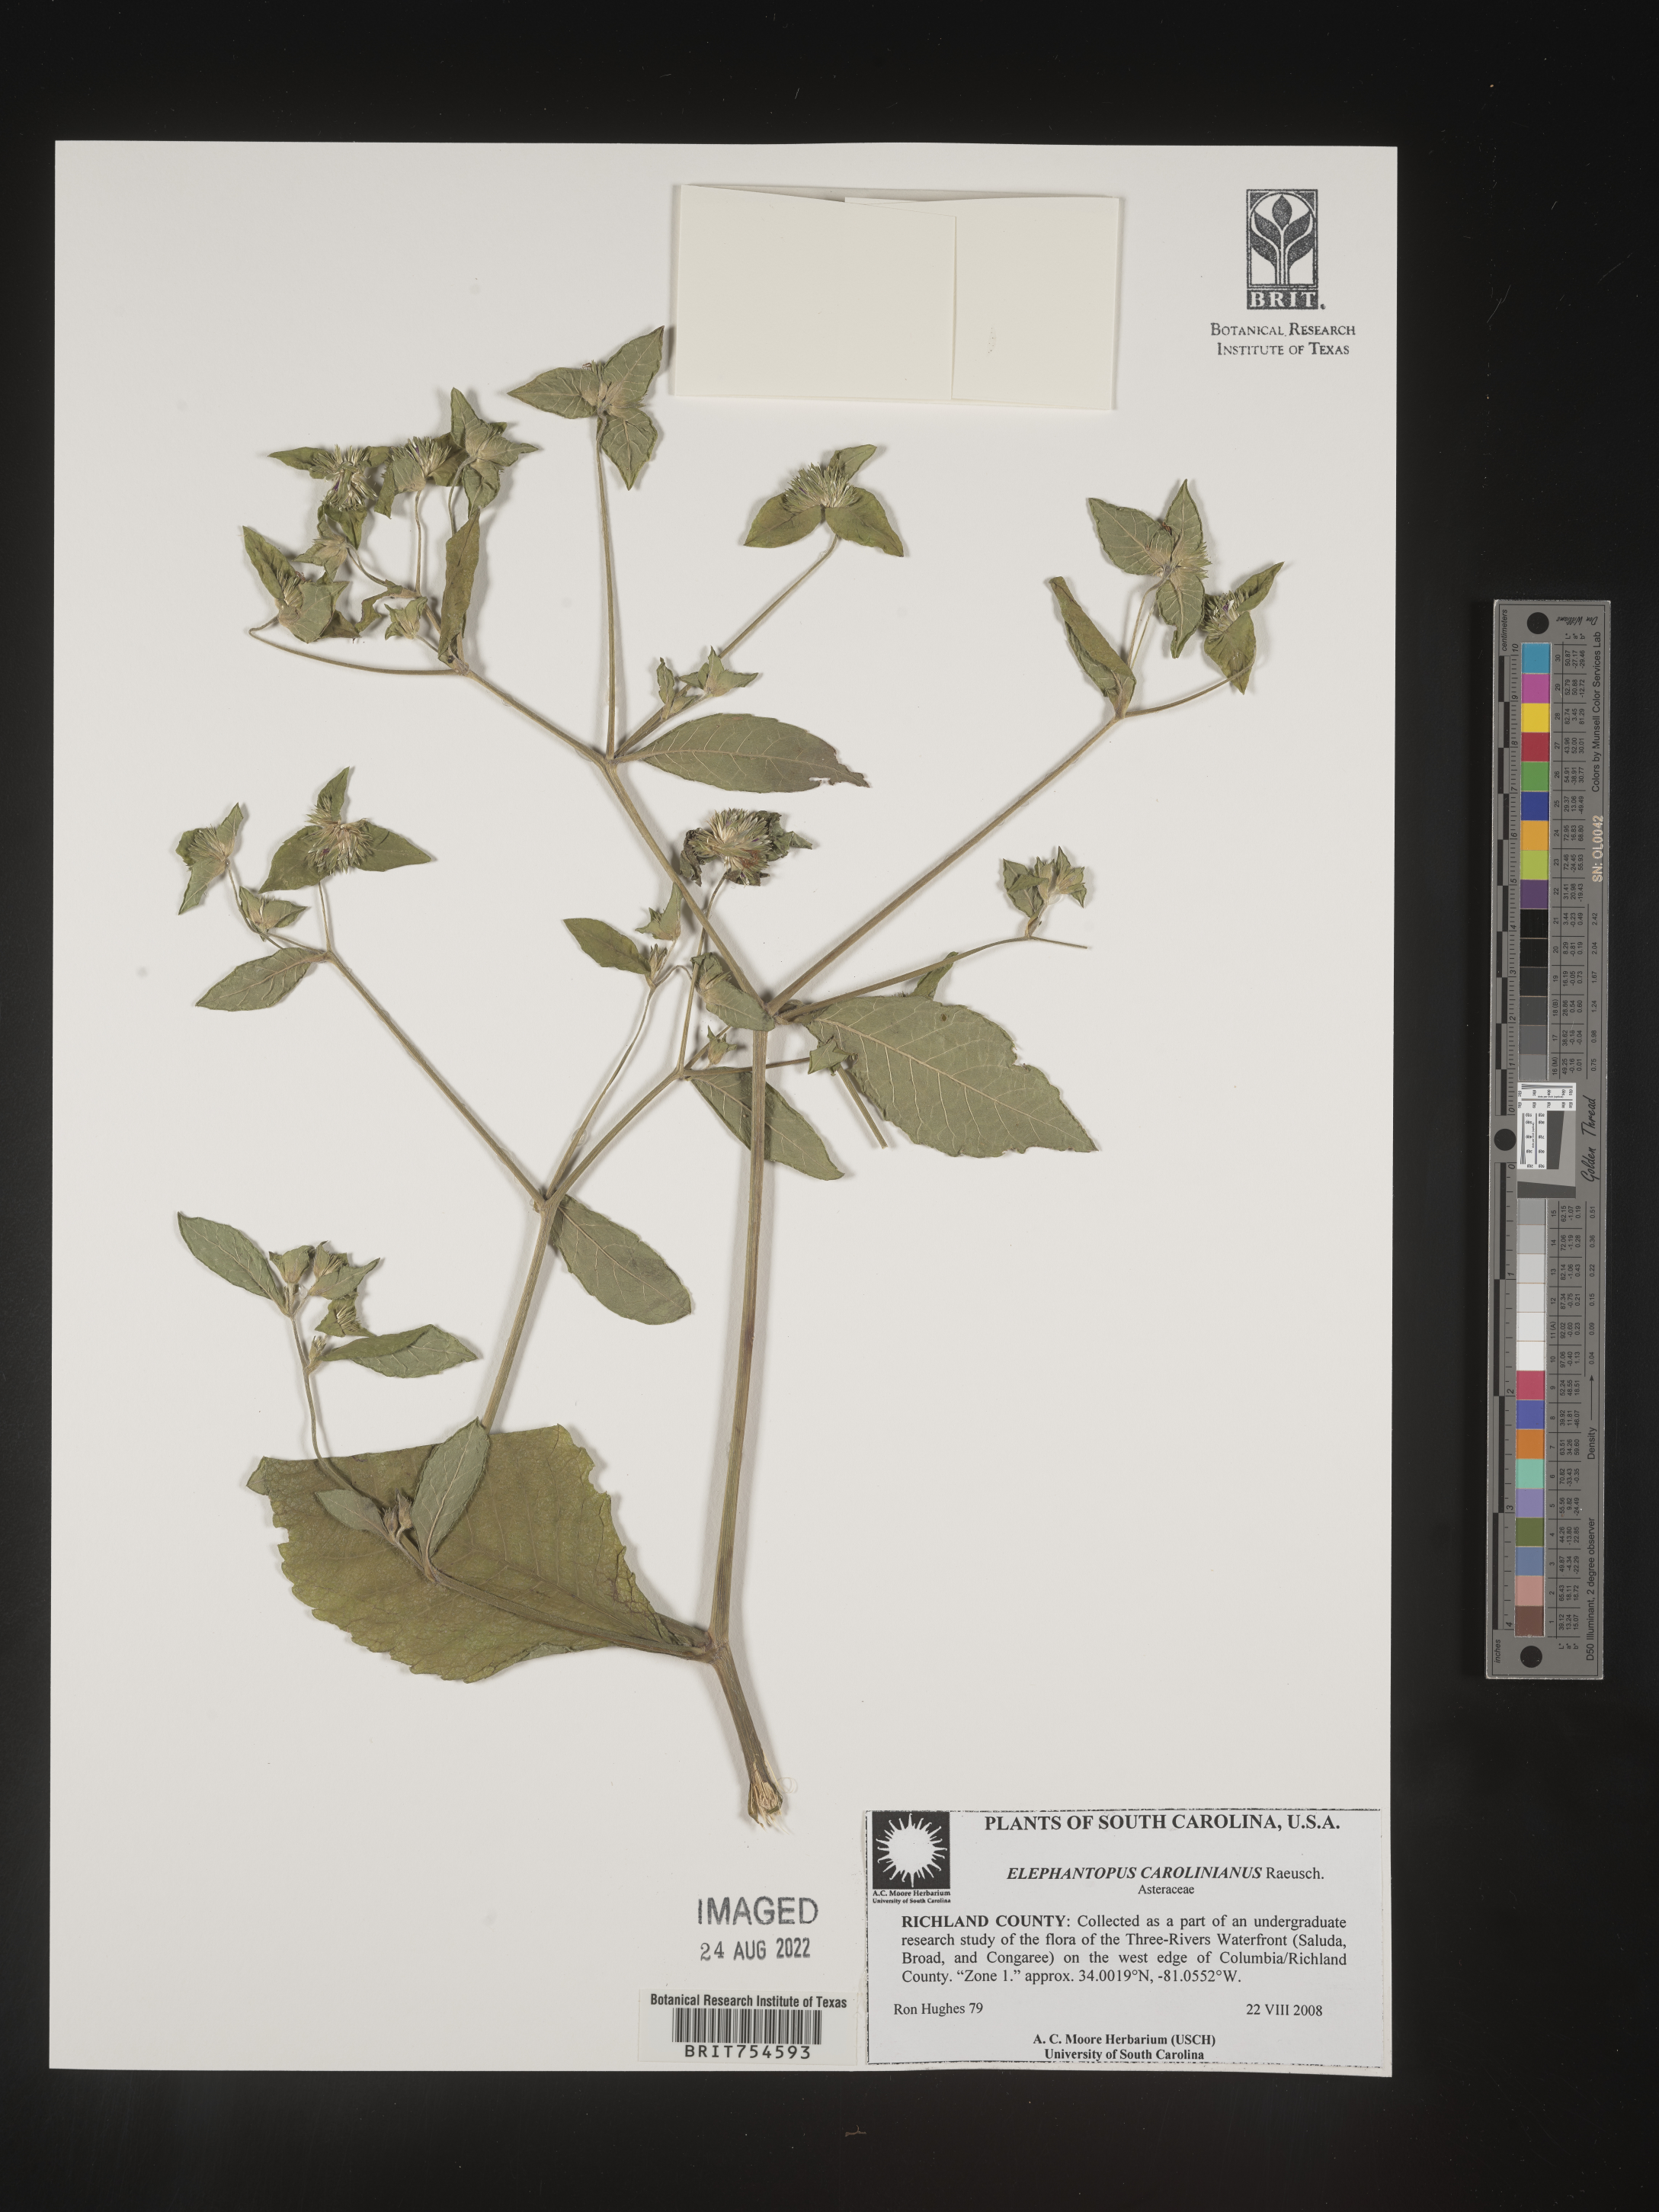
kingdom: Plantae
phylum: Tracheophyta
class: Magnoliopsida
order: Asterales
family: Asteraceae
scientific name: Asteraceae
